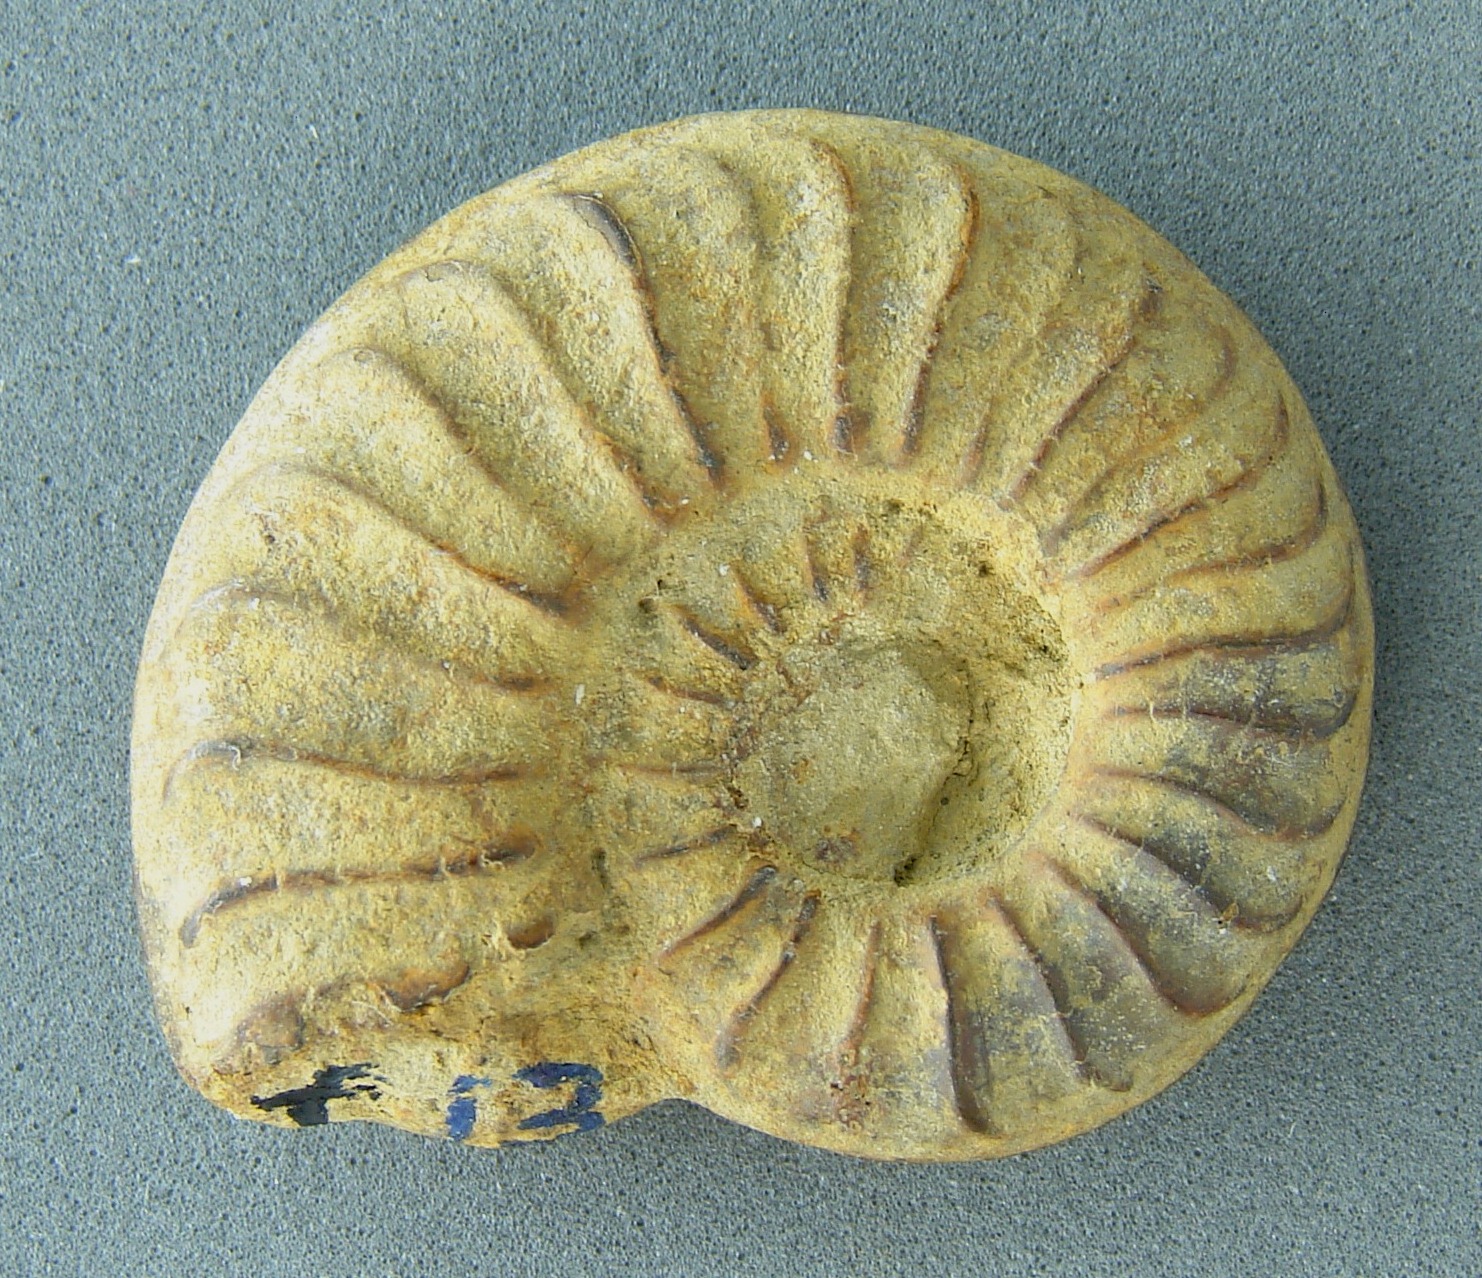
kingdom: Animalia
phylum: Mollusca
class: Cephalopoda
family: Hildoceratidae
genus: Cotteswoldia
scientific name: Cotteswoldia
